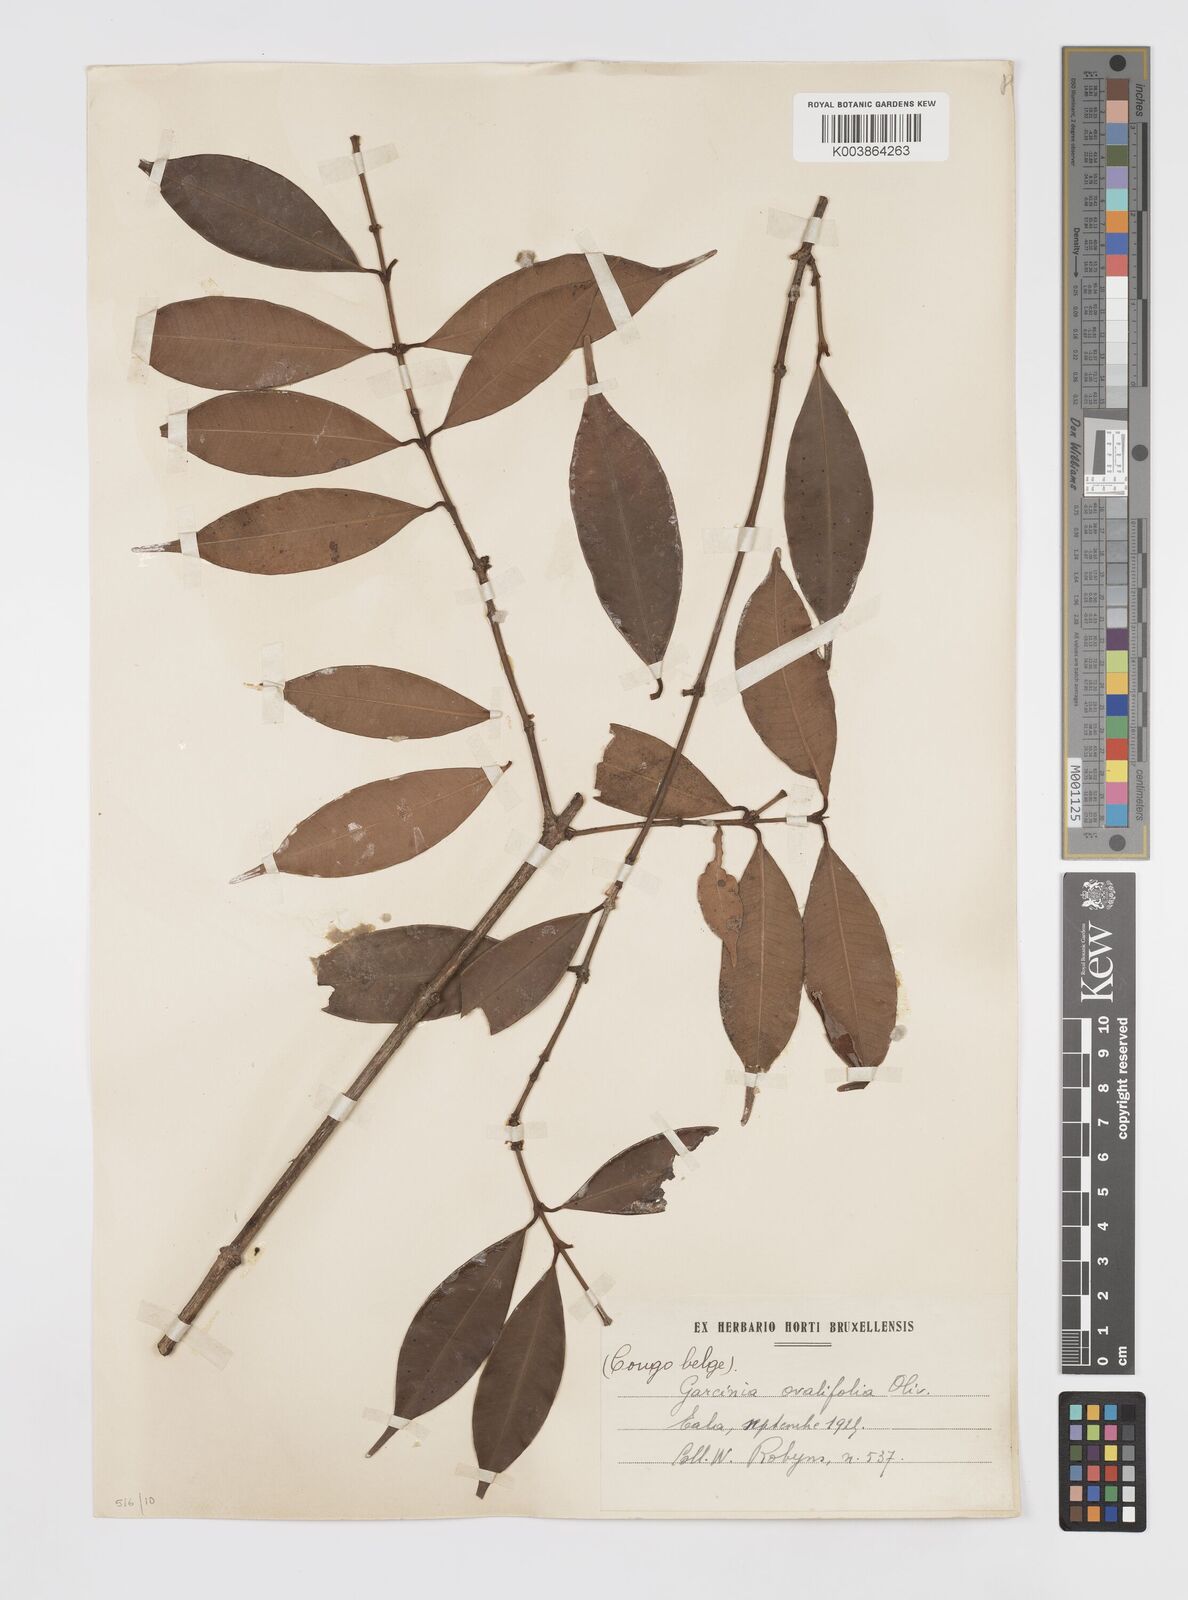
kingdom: Plantae
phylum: Tracheophyta
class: Magnoliopsida
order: Malpighiales
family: Clusiaceae
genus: Garcinia
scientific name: Garcinia ovalifolia
